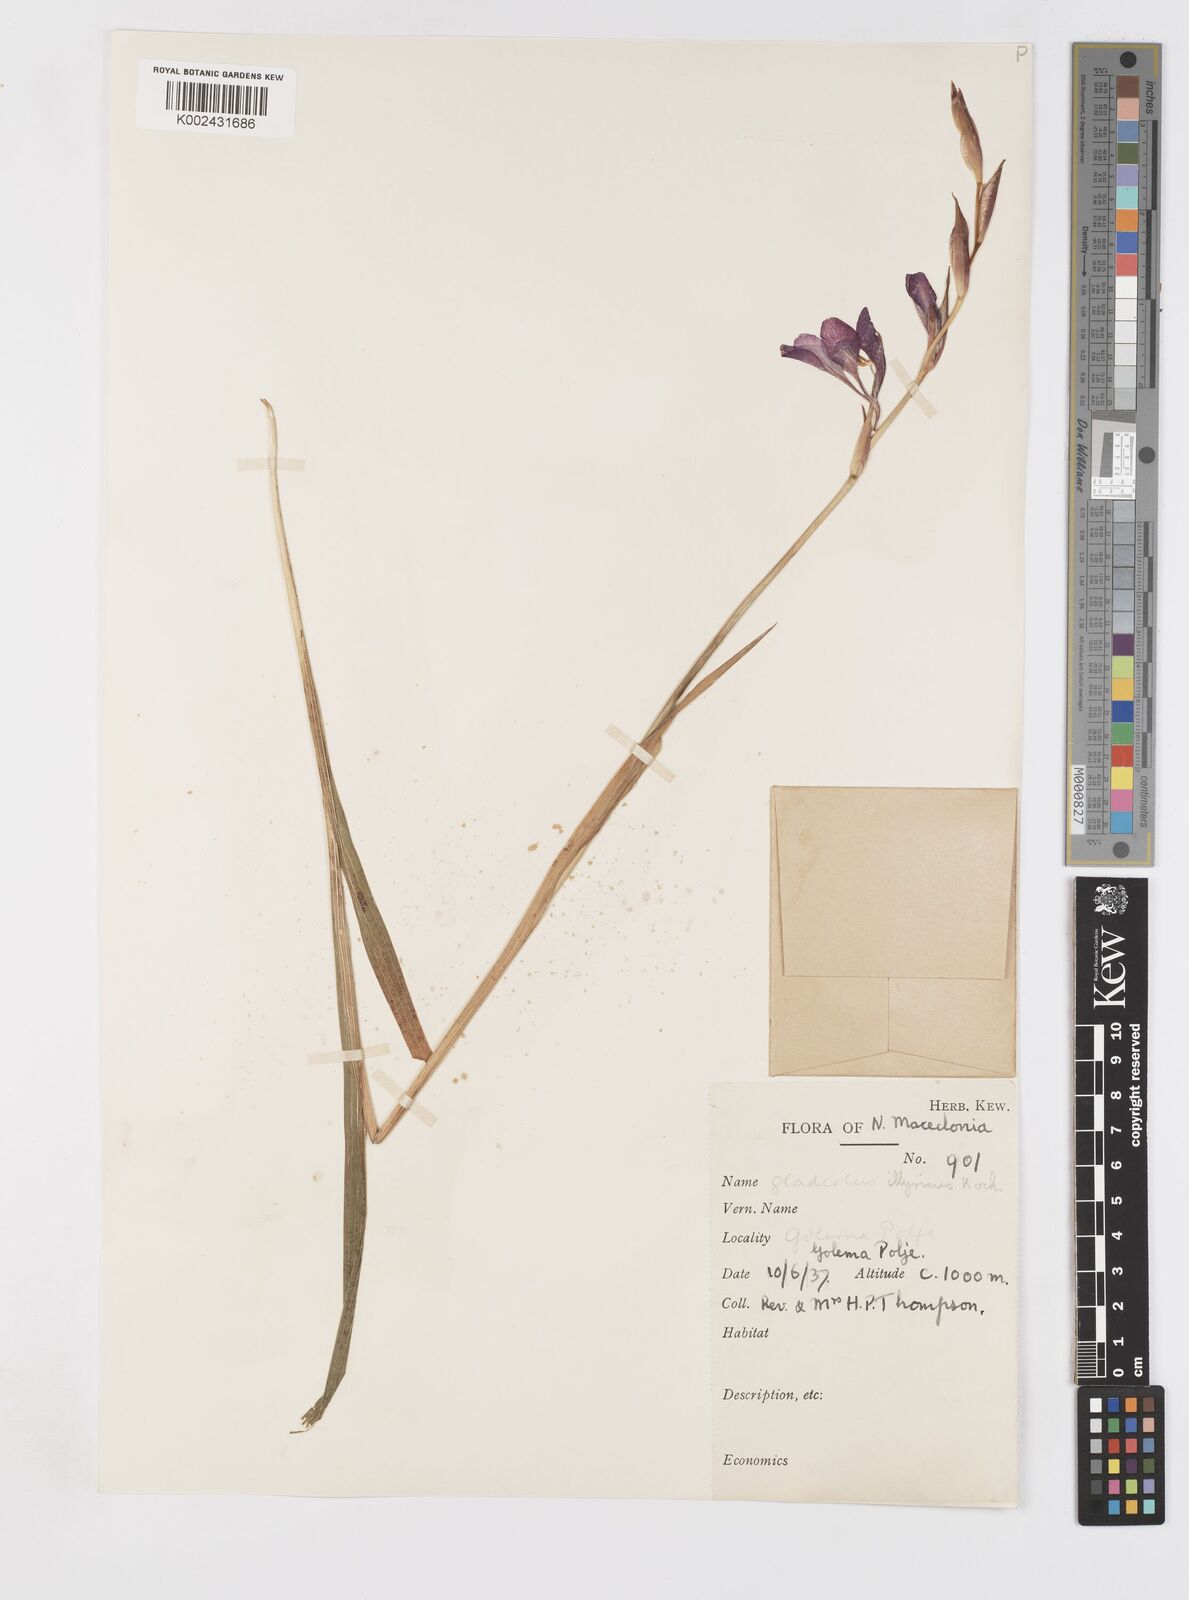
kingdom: Plantae
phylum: Tracheophyta
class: Liliopsida
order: Asparagales
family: Iridaceae
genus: Gladiolus
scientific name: Gladiolus illyricus
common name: Wild gladiolus
